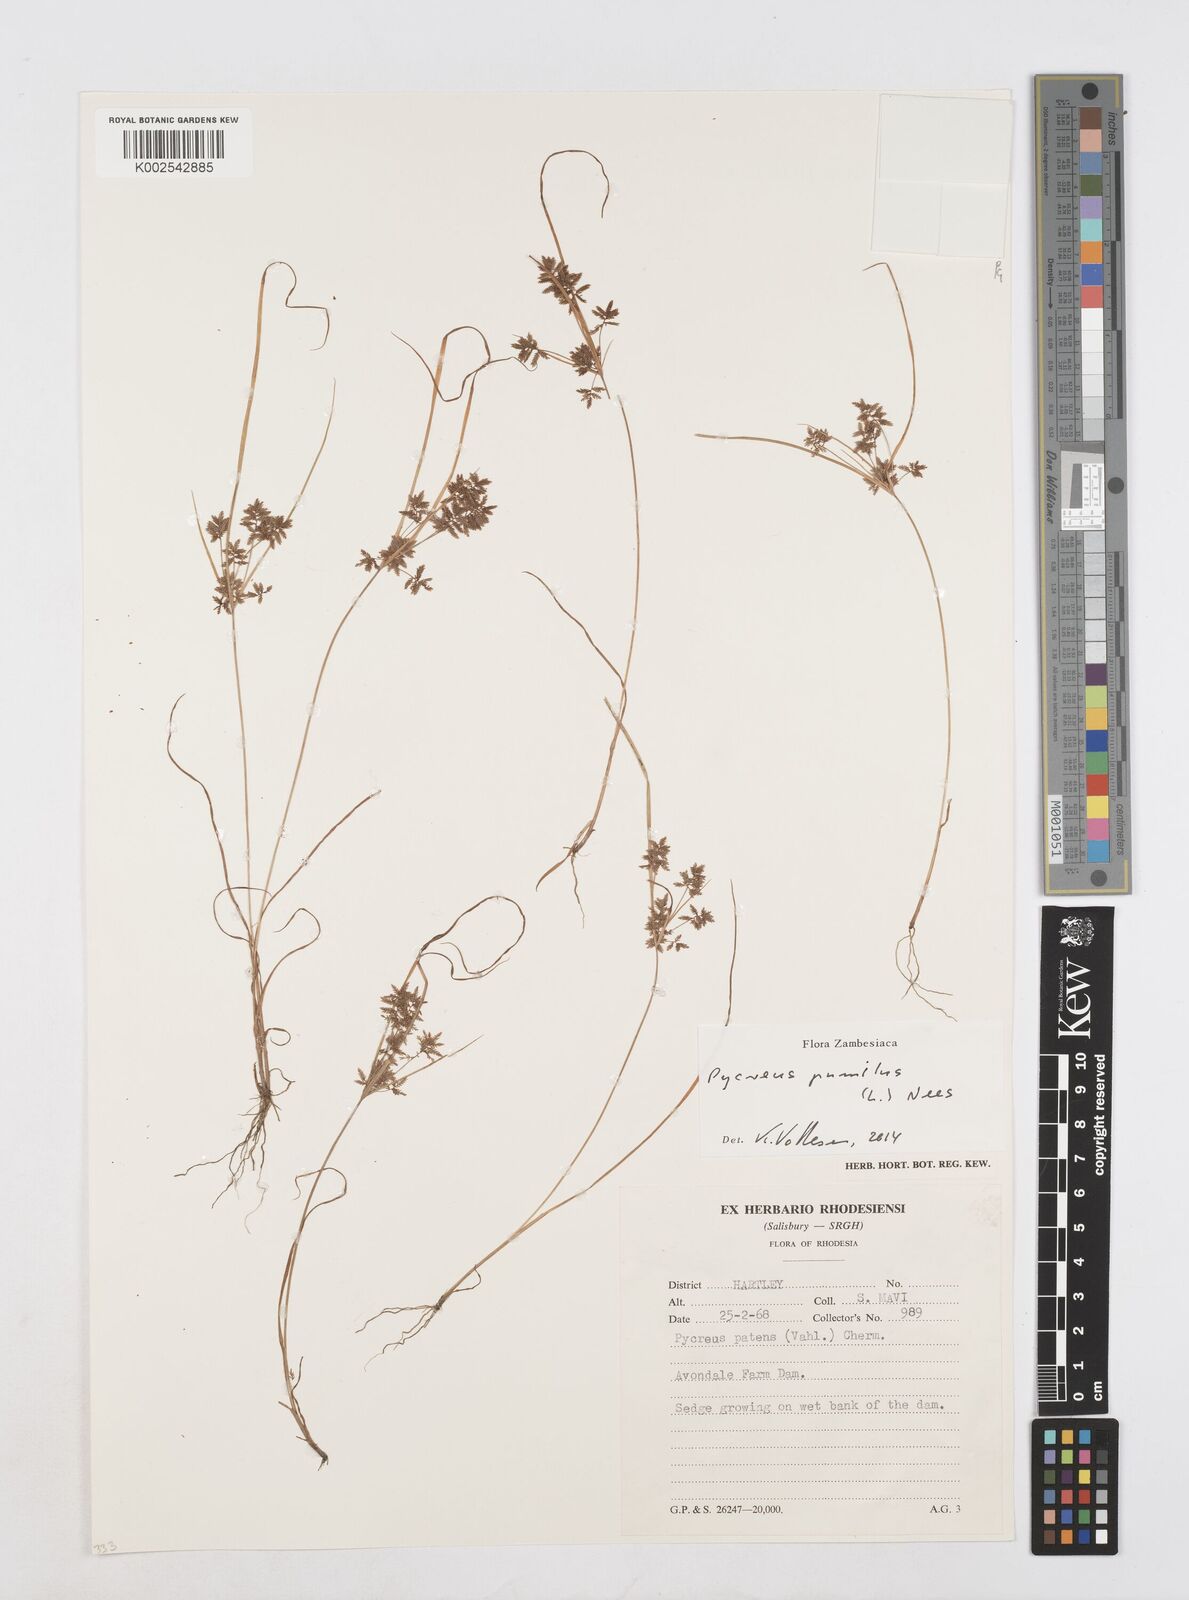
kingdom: Plantae
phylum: Tracheophyta
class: Liliopsida
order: Poales
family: Cyperaceae
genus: Cyperus
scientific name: Cyperus pumilus
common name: Low flatsedge
